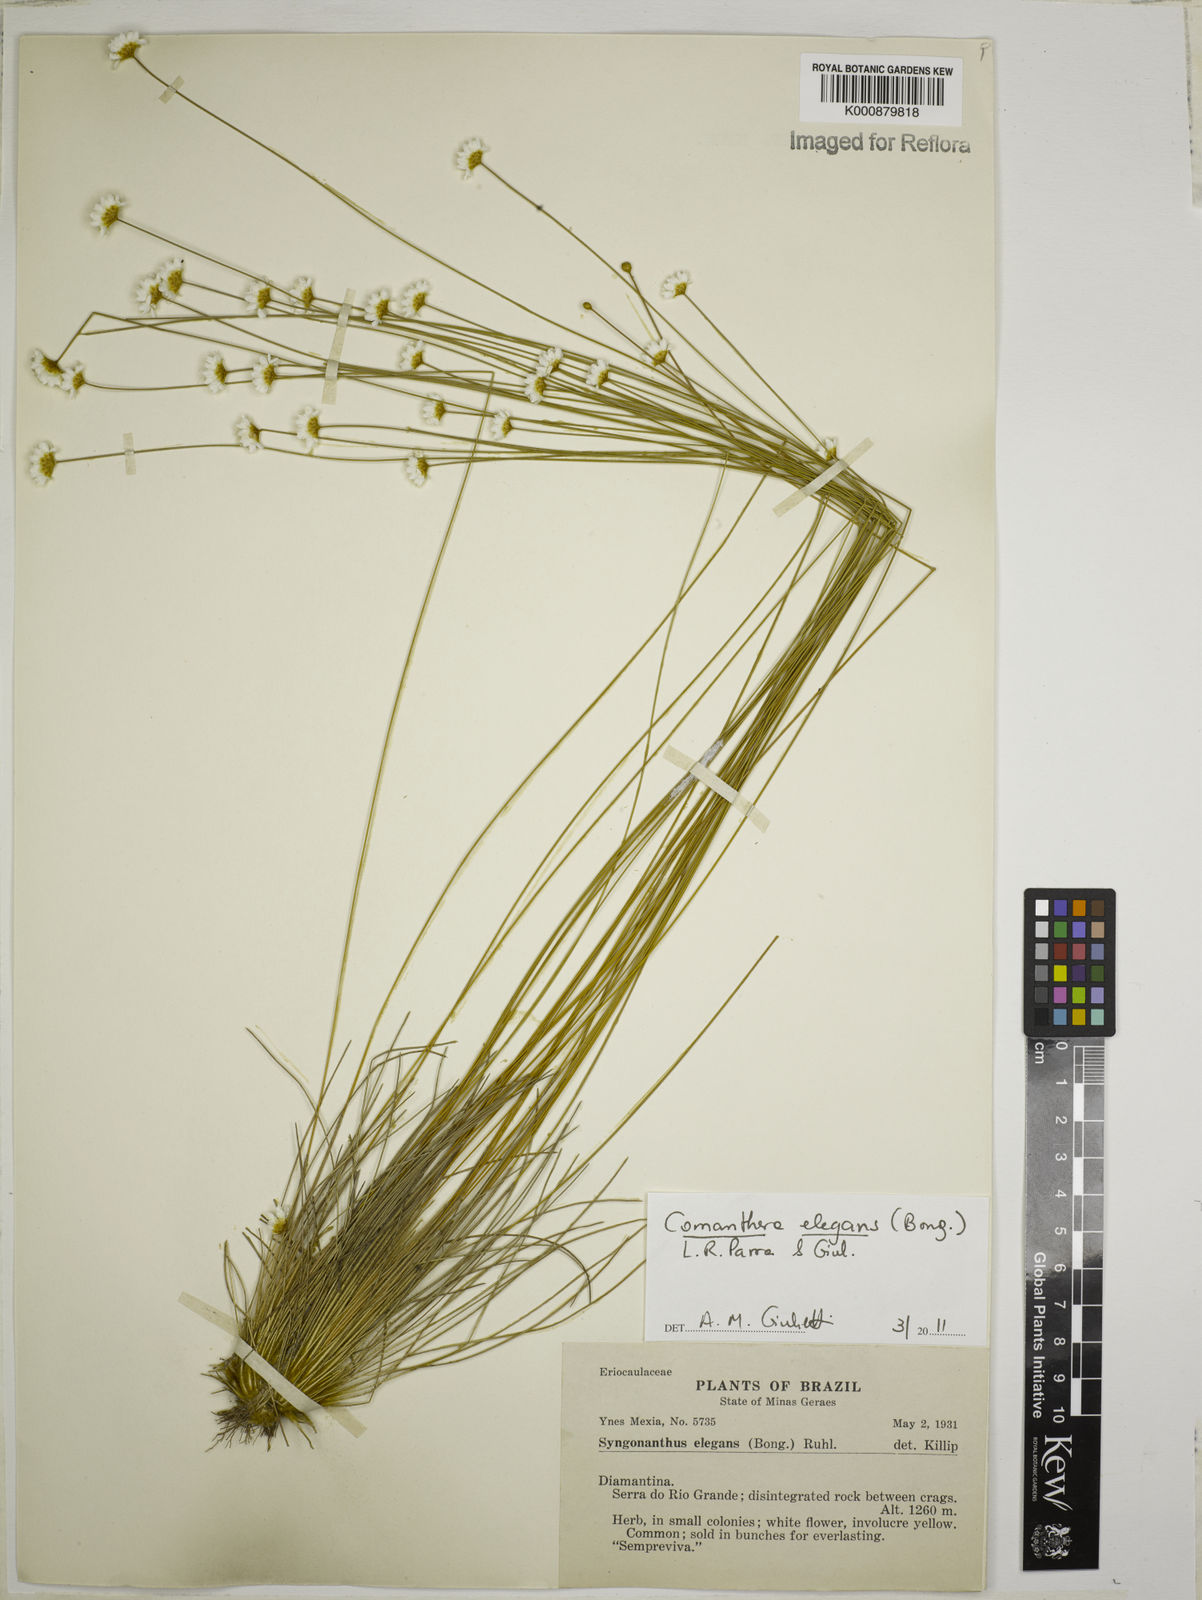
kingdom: Plantae
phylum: Tracheophyta
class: Liliopsida
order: Poales
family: Eriocaulaceae
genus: Comanthera
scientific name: Comanthera elegans
